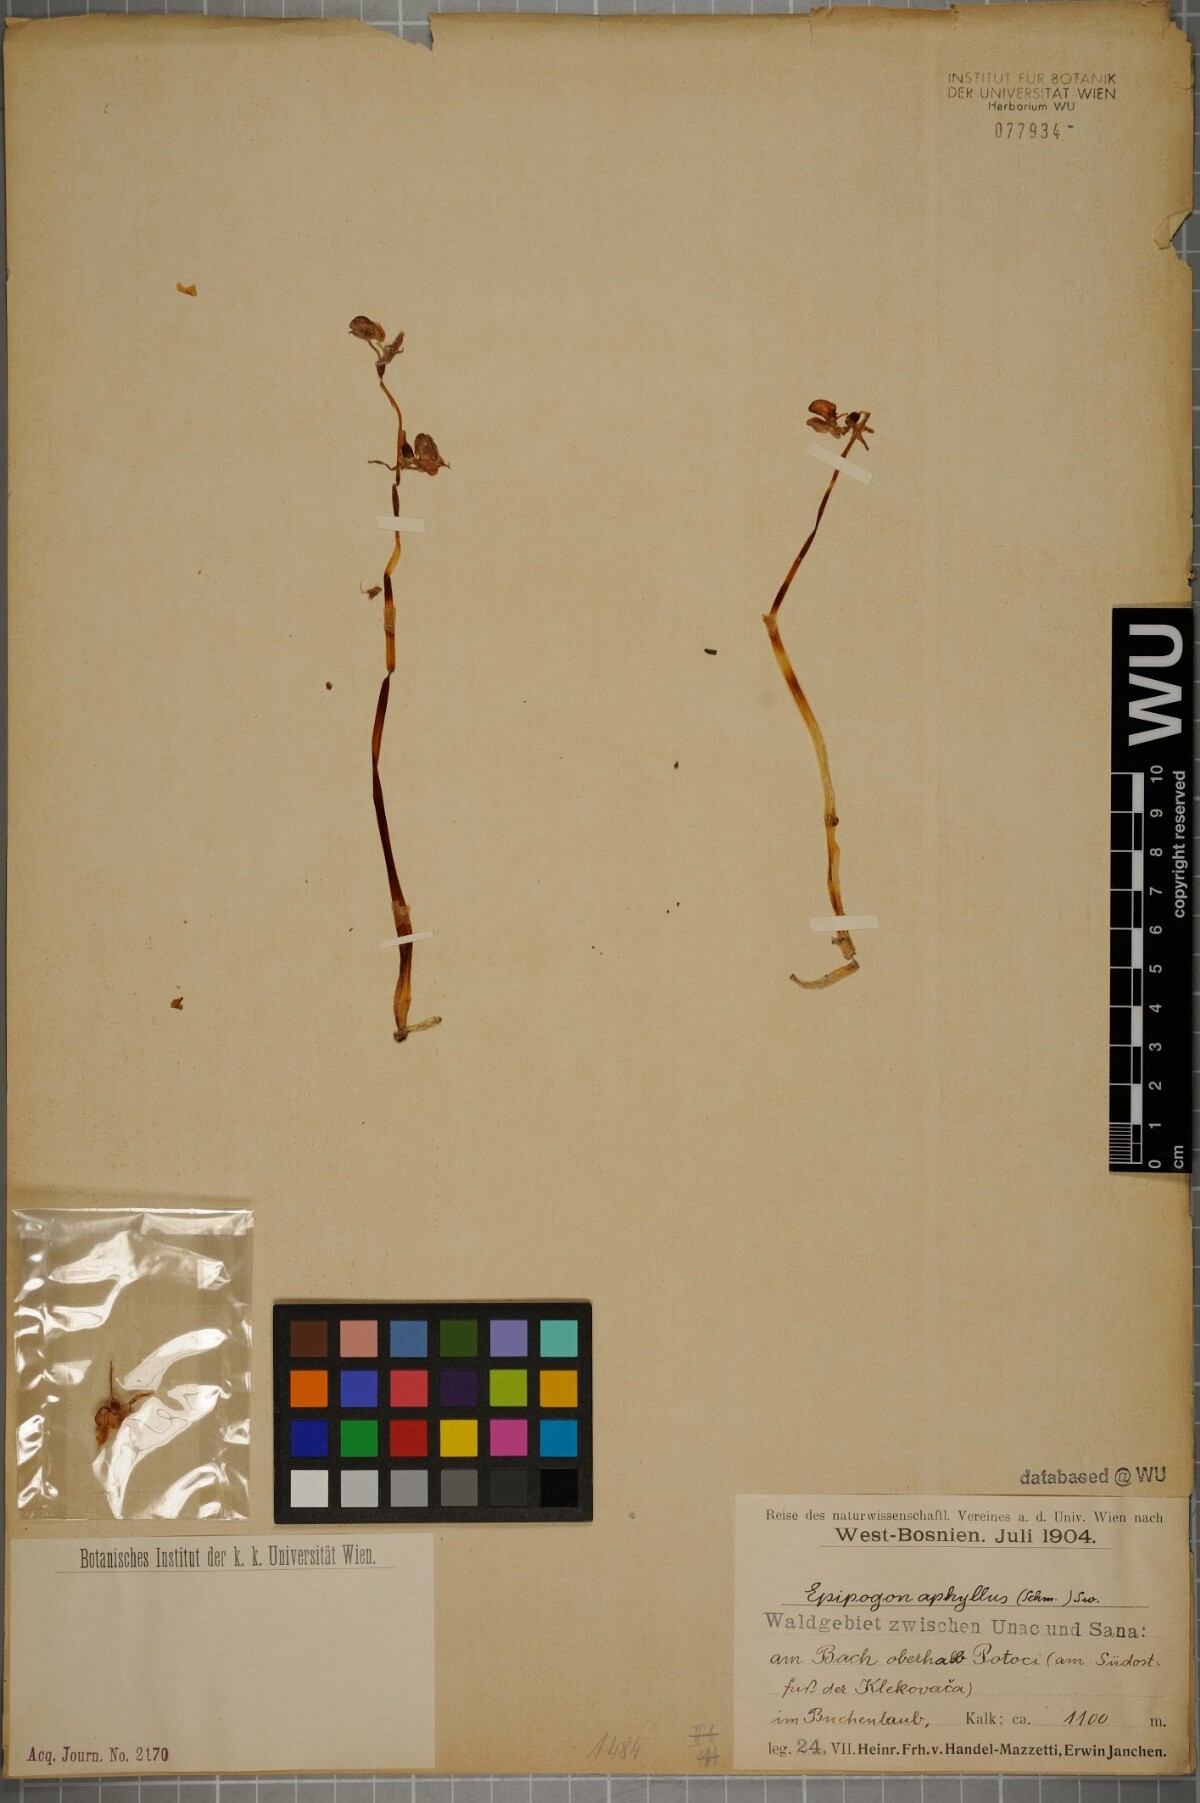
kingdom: Plantae
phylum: Tracheophyta
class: Liliopsida
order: Asparagales
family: Orchidaceae
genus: Epipogium
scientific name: Epipogium aphyllum
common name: Ghost orchid
